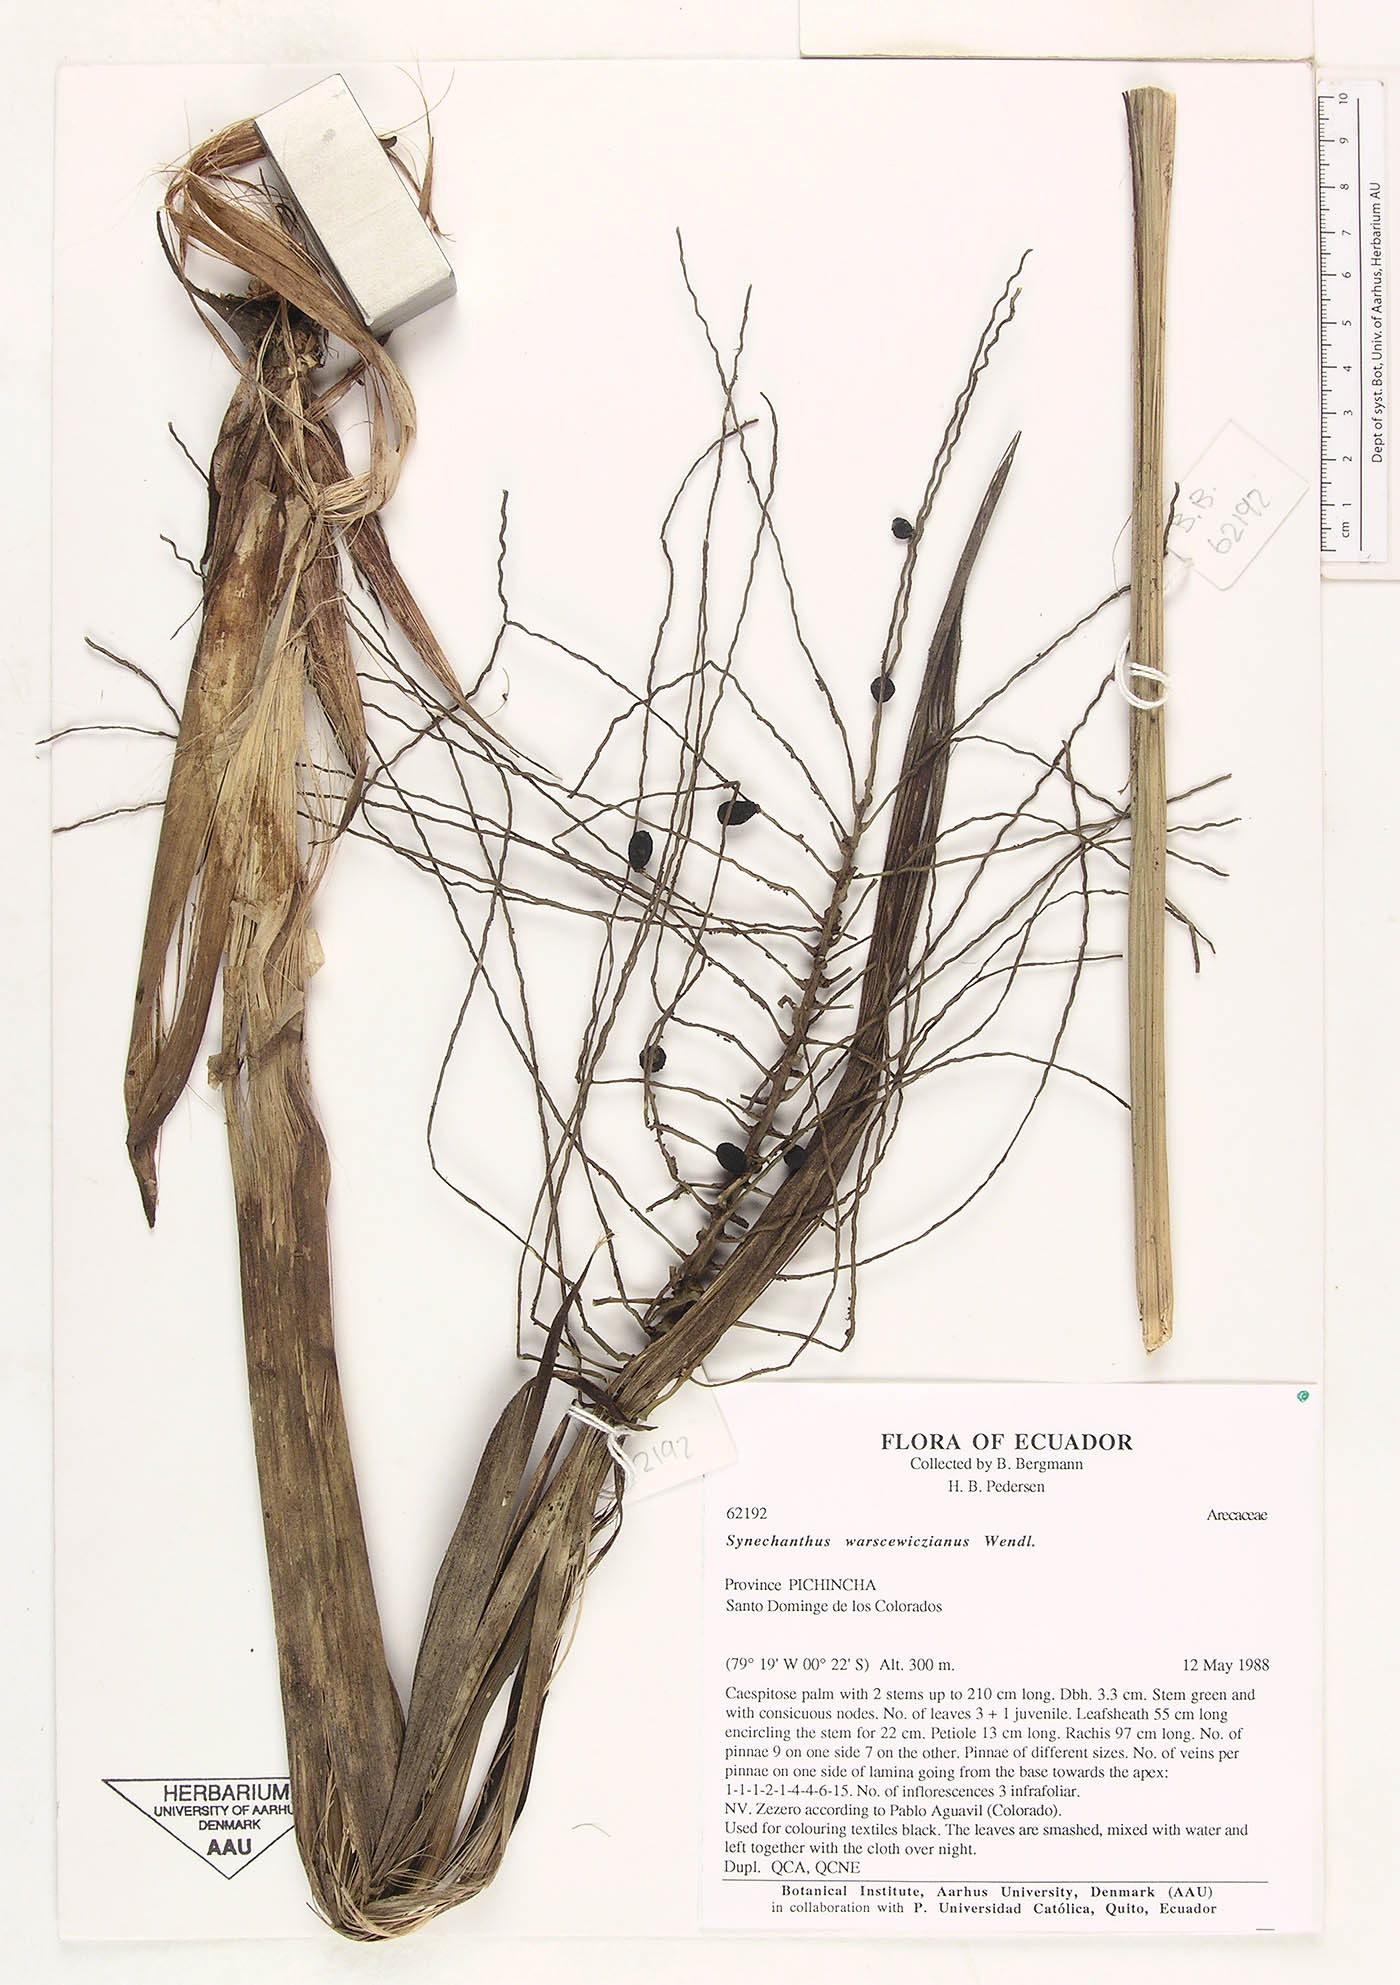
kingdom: Plantae
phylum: Tracheophyta
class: Liliopsida
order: Arecales
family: Arecaceae
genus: Synechanthus
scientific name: Synechanthus warscewiczianus
